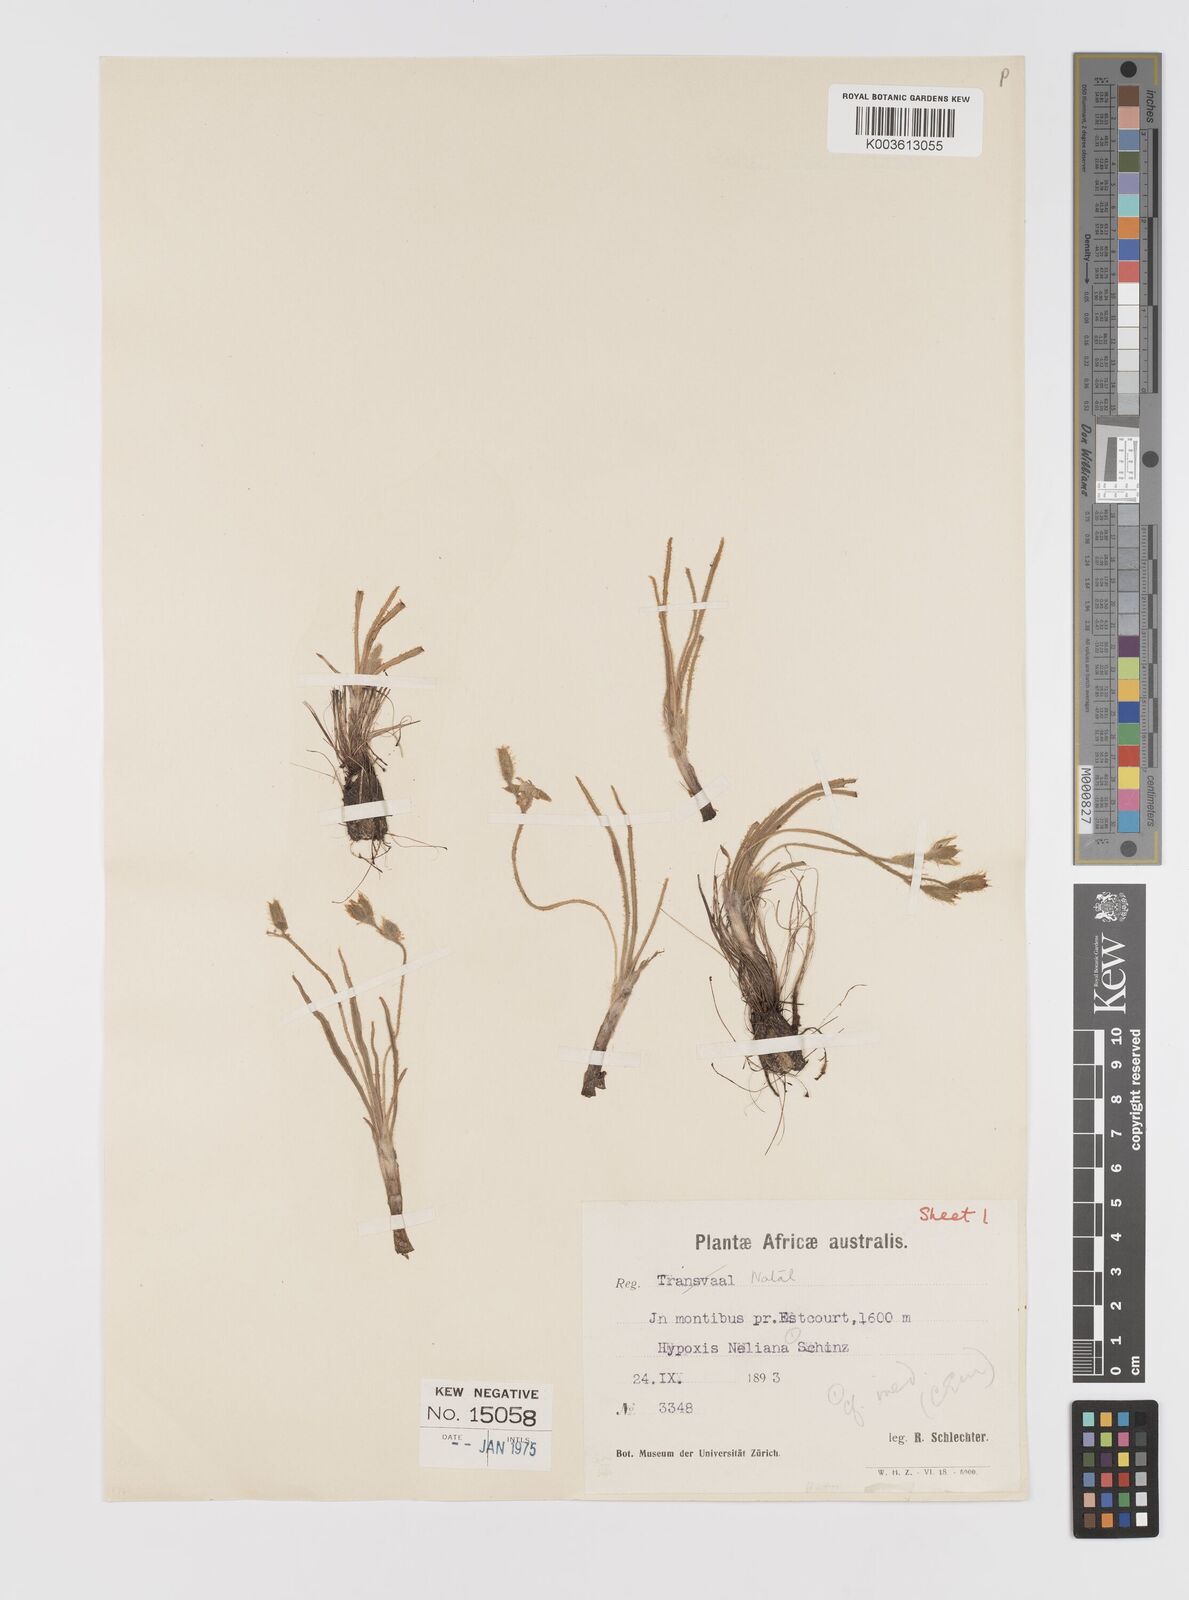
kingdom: Plantae
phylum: Tracheophyta
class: Liliopsida
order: Asparagales
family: Hypoxidaceae
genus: Hypoxis
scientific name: Hypoxis neliana
